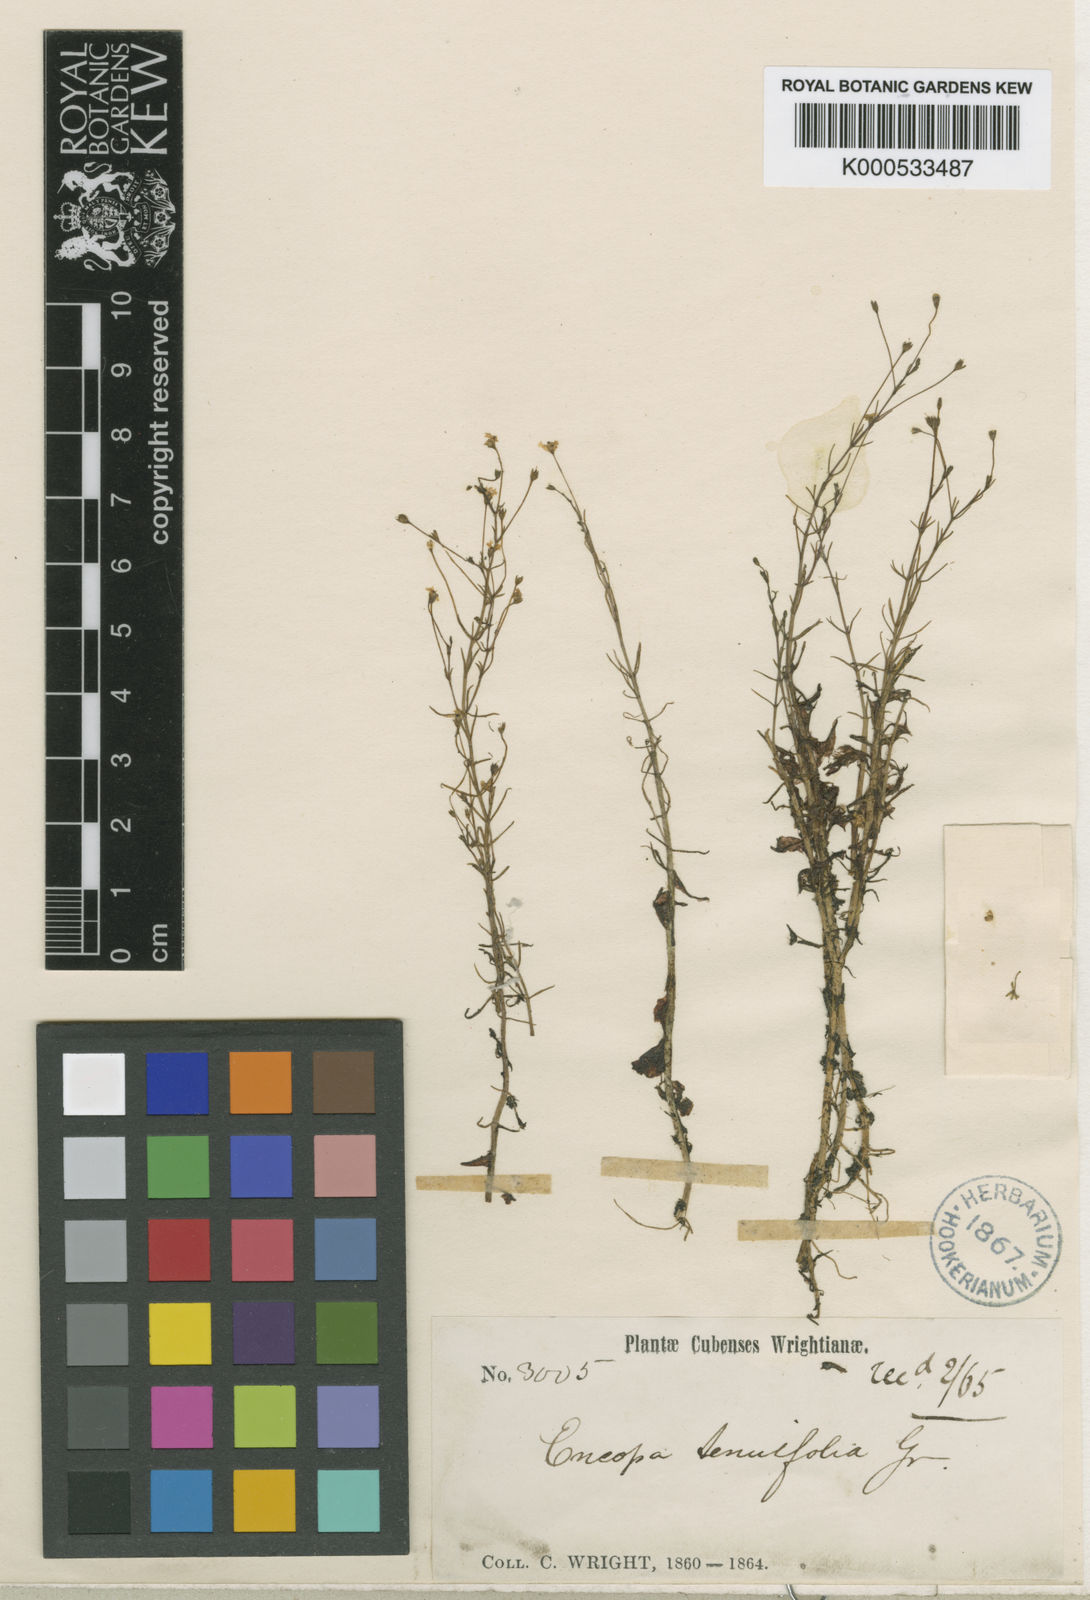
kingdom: Plantae
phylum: Tracheophyta
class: Magnoliopsida
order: Lamiales
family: Plantaginaceae
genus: Encopella
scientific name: Encopella tenuifolia
